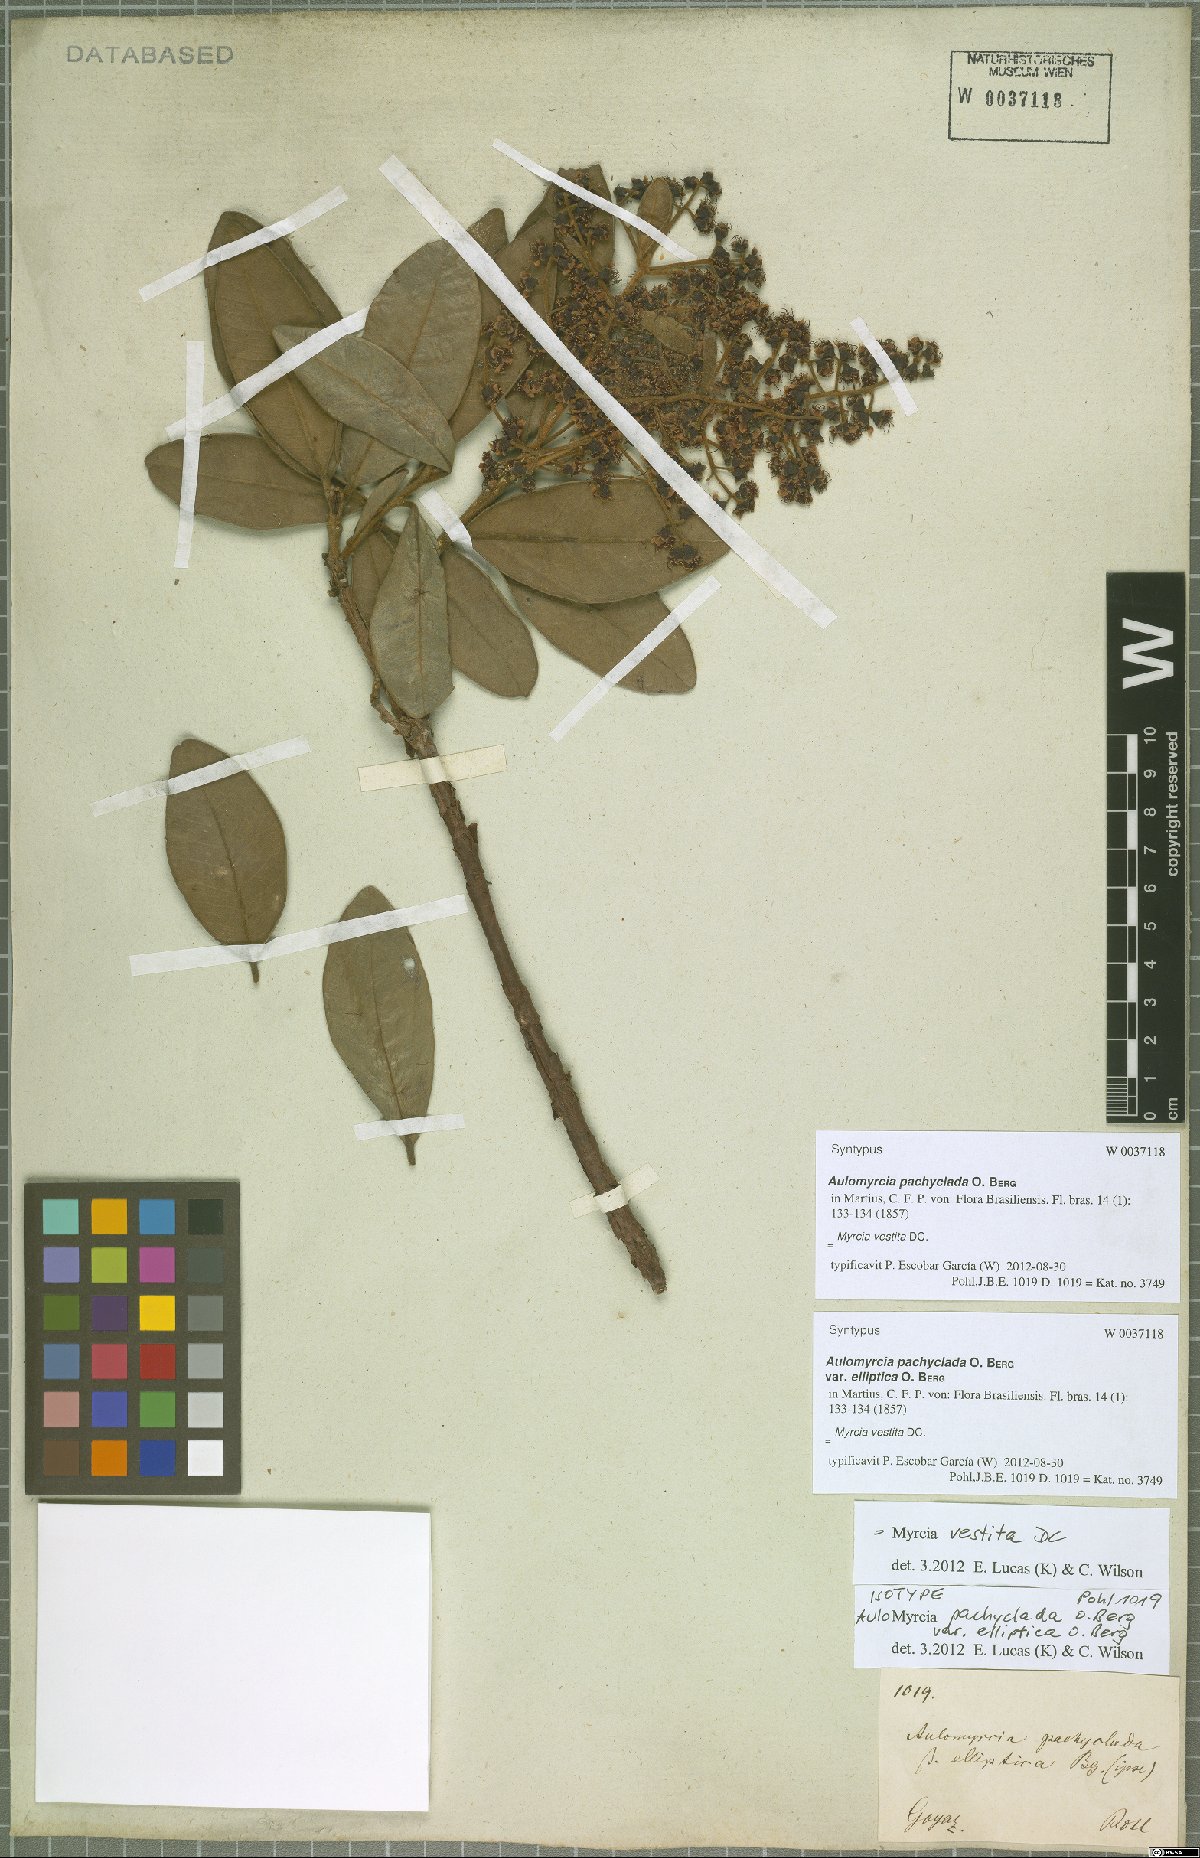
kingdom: Plantae
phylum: Tracheophyta
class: Magnoliopsida
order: Myrtales
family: Myrtaceae
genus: Myrcia
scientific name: Myrcia vestita
